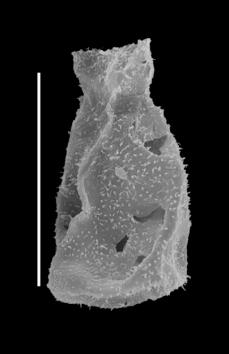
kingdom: Protozoa
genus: Belonechitina
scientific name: Belonechitina
